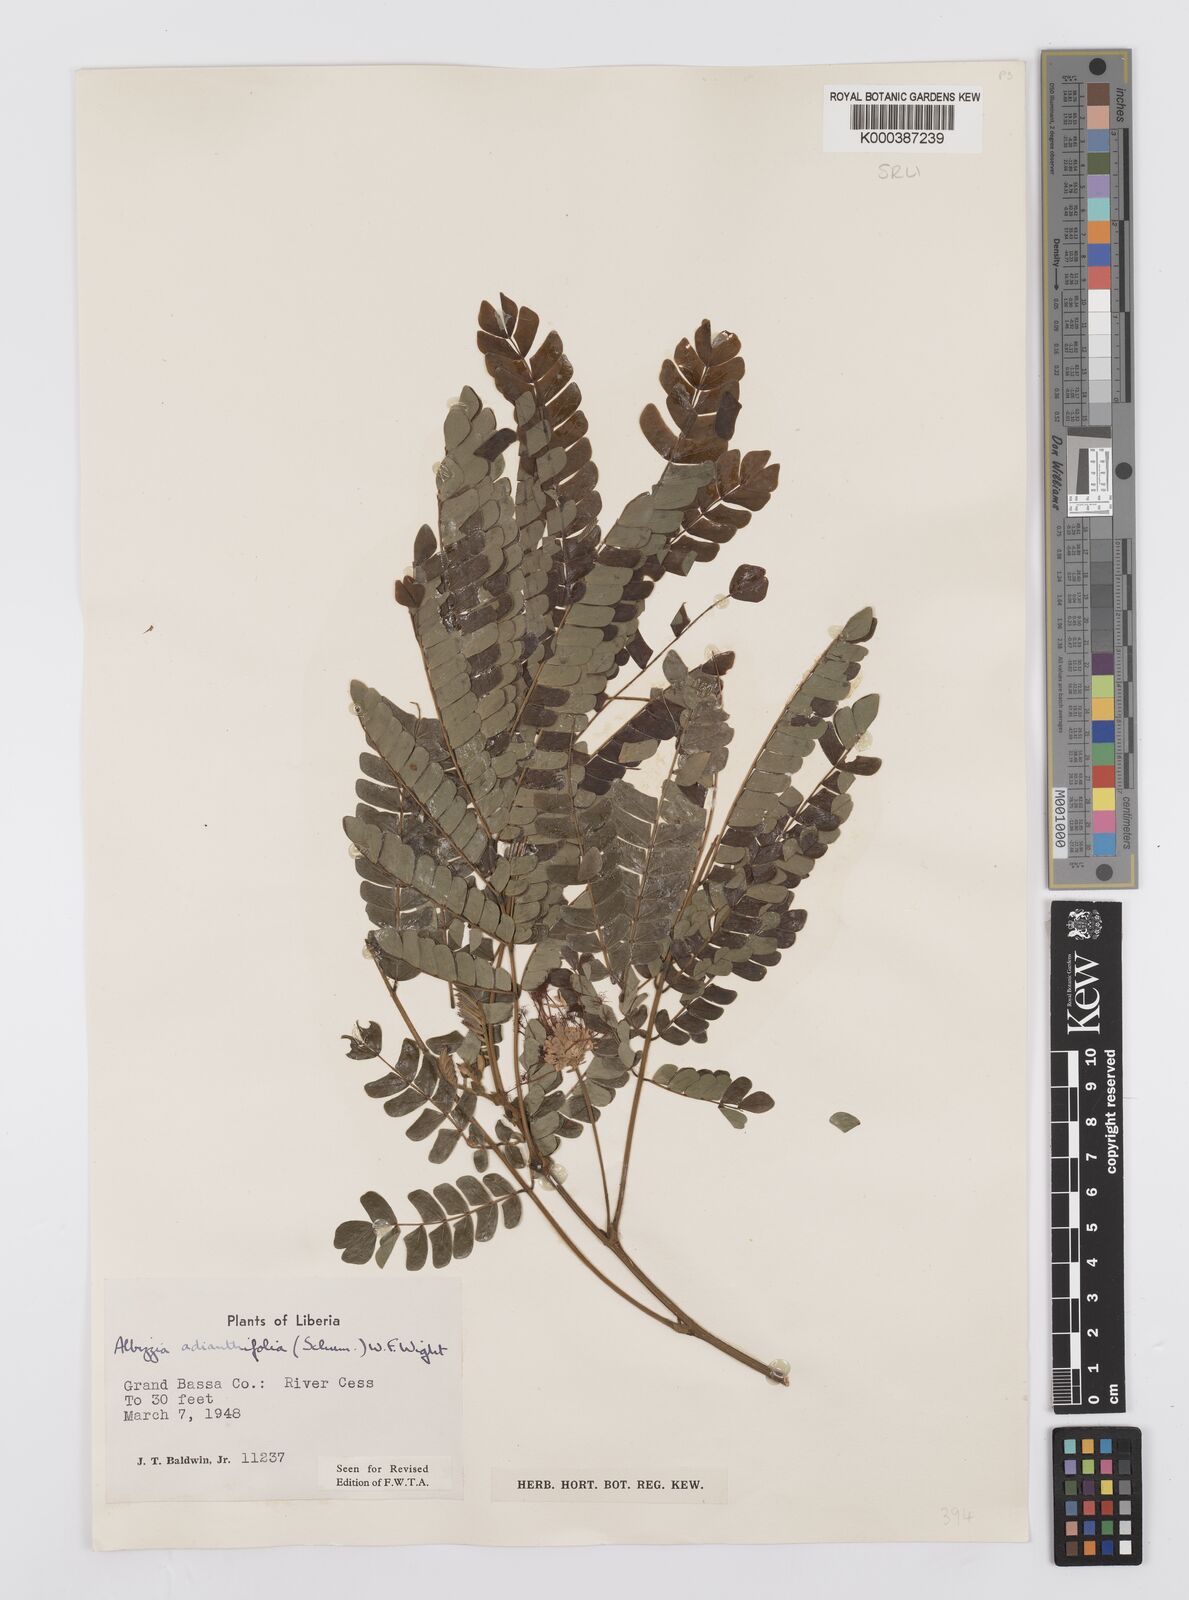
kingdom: Plantae
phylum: Tracheophyta
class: Magnoliopsida
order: Fabales
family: Fabaceae
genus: Albizia
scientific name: Albizia adianthifolia
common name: West african albizia
